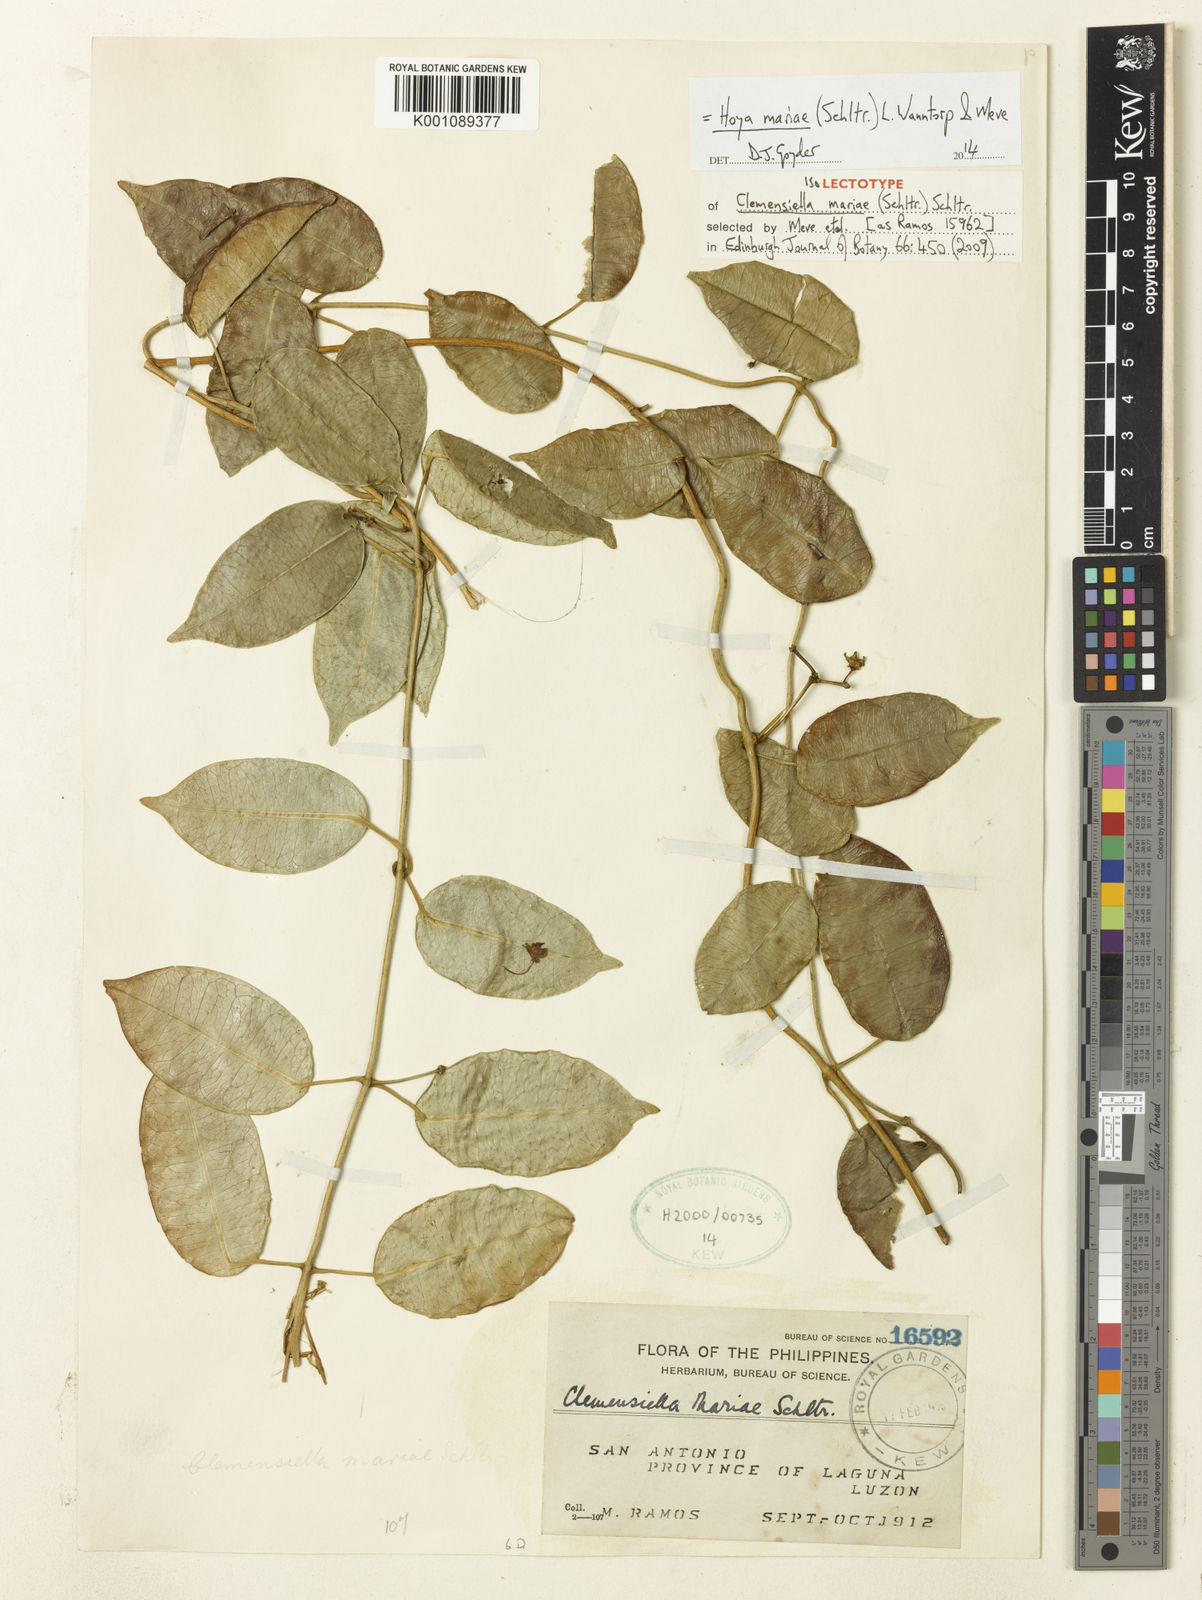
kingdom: Plantae
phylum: Tracheophyta
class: Magnoliopsida
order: Gentianales
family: Apocynaceae
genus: Hoya
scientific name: Hoya mariae
